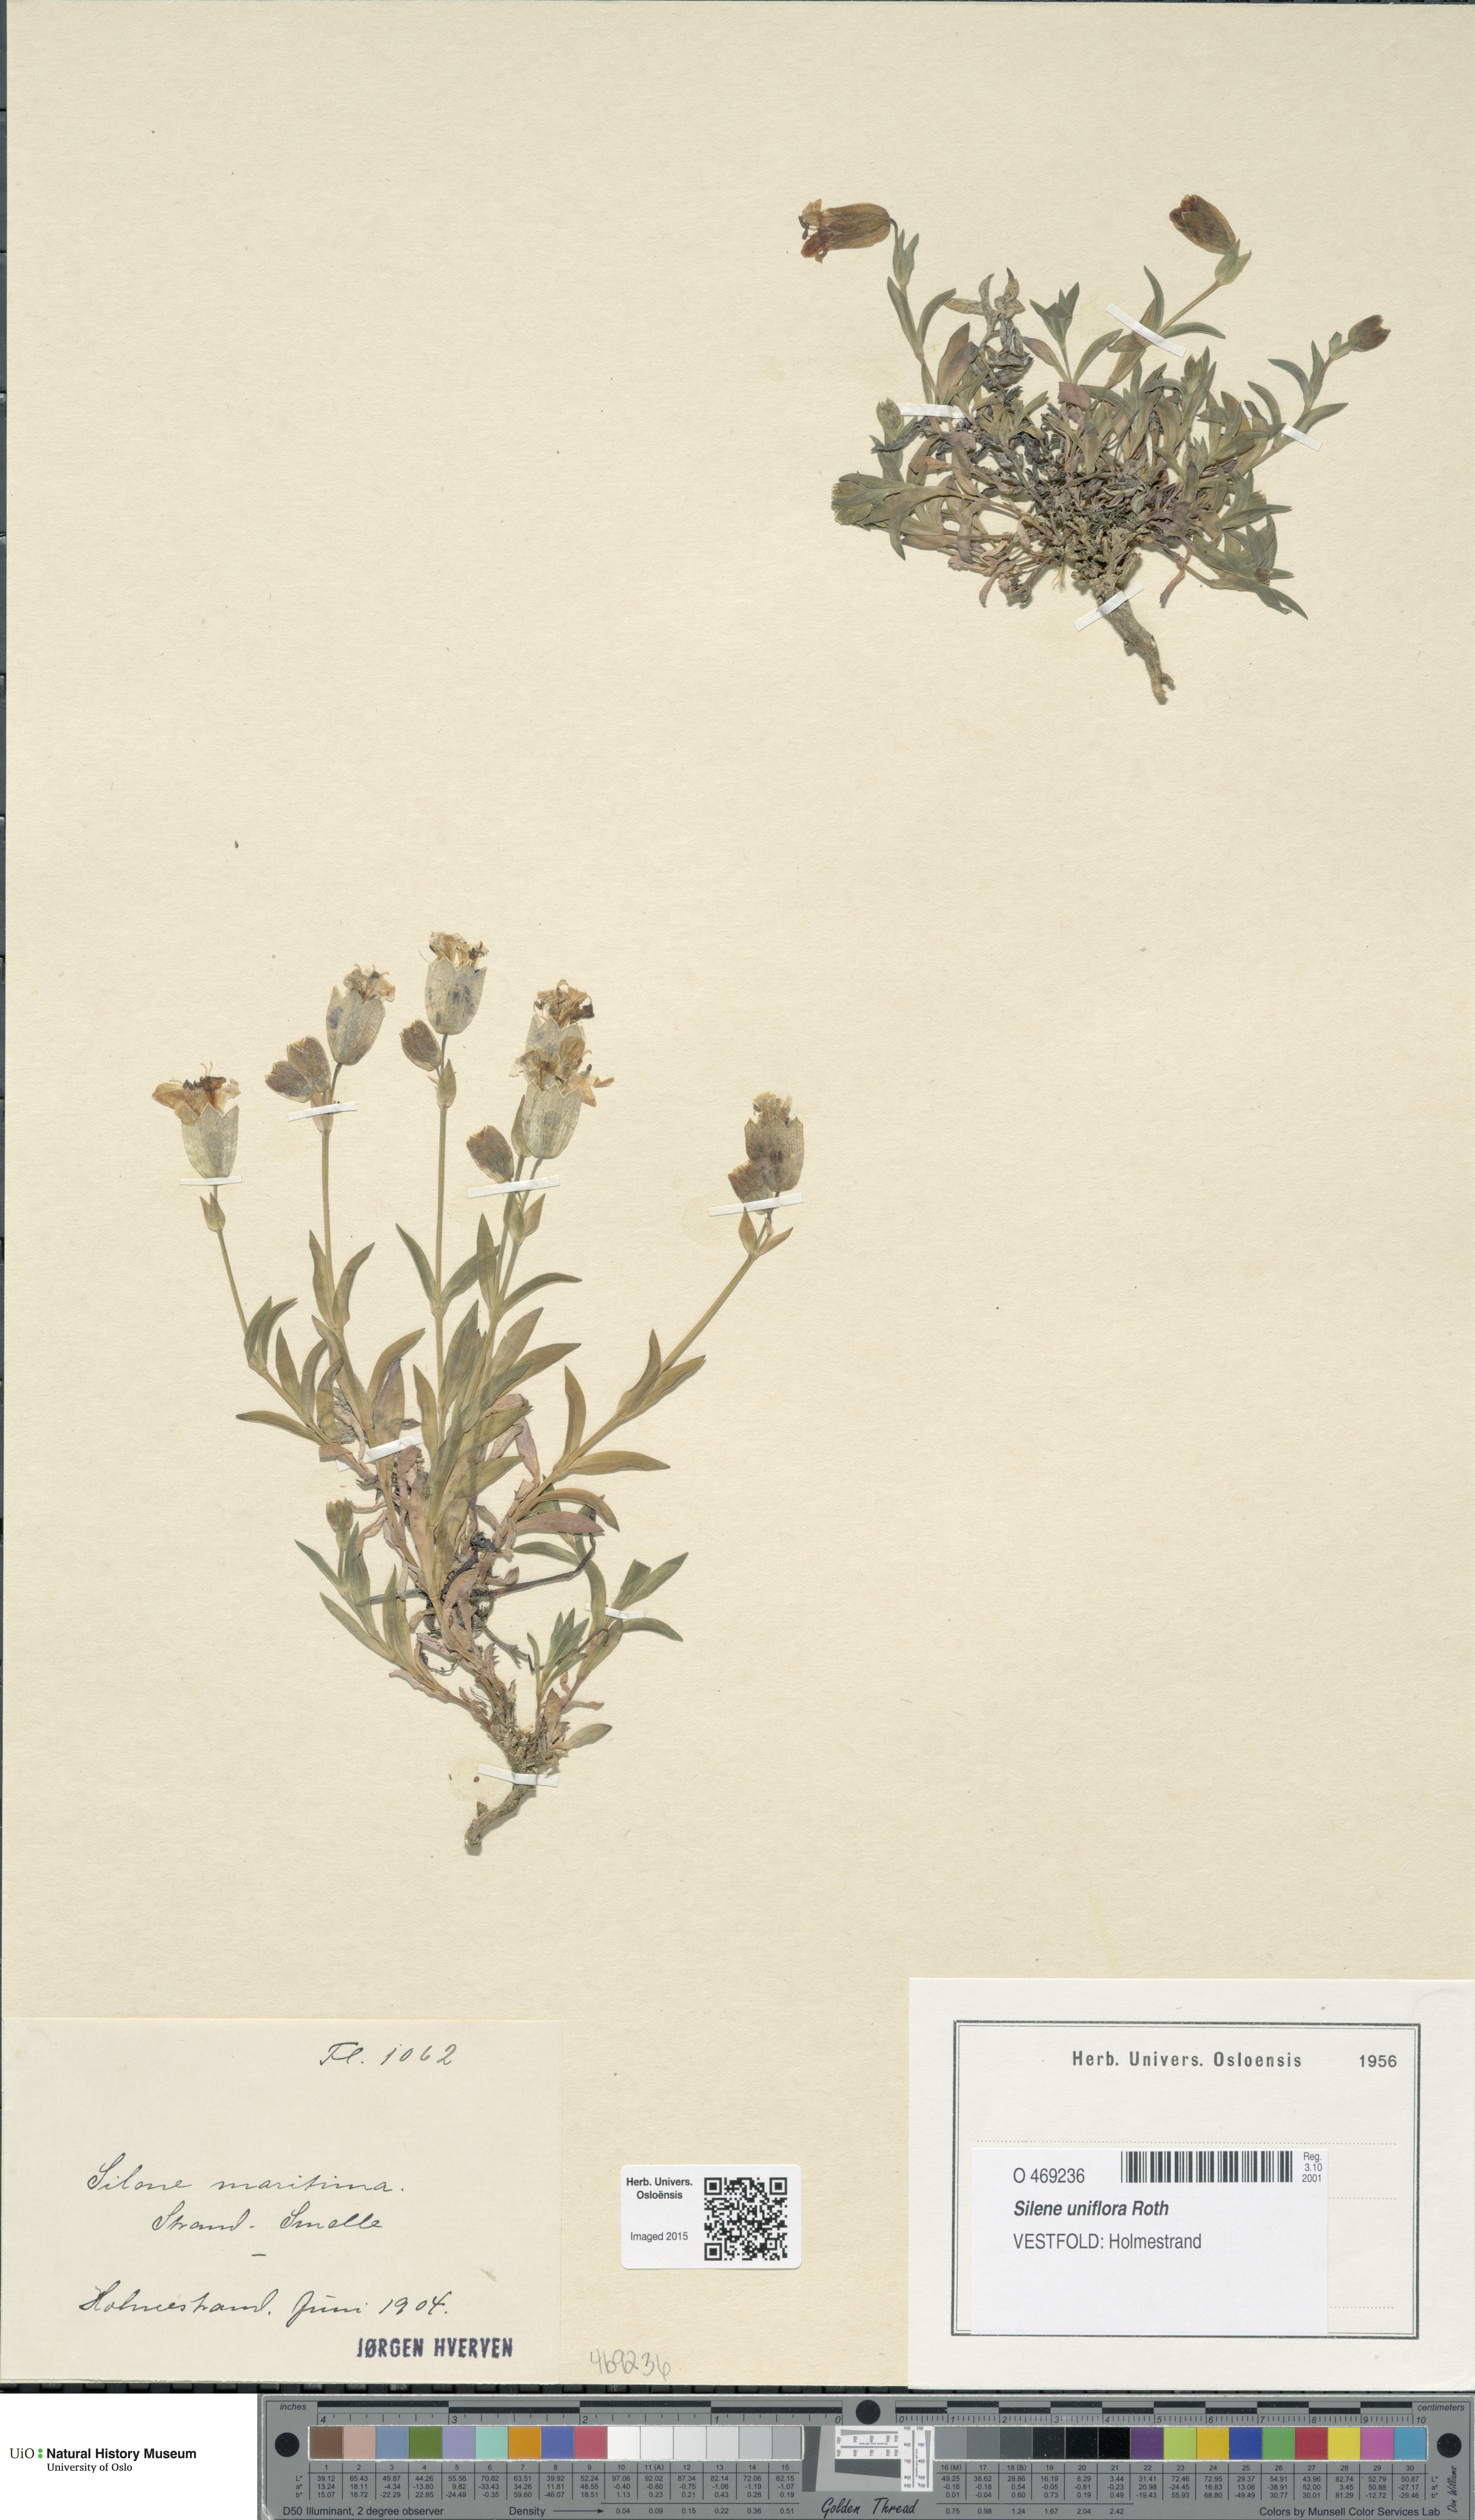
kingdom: Plantae
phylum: Tracheophyta
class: Magnoliopsida
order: Caryophyllales
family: Caryophyllaceae
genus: Silene
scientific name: Silene uniflora
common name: Sea campion
